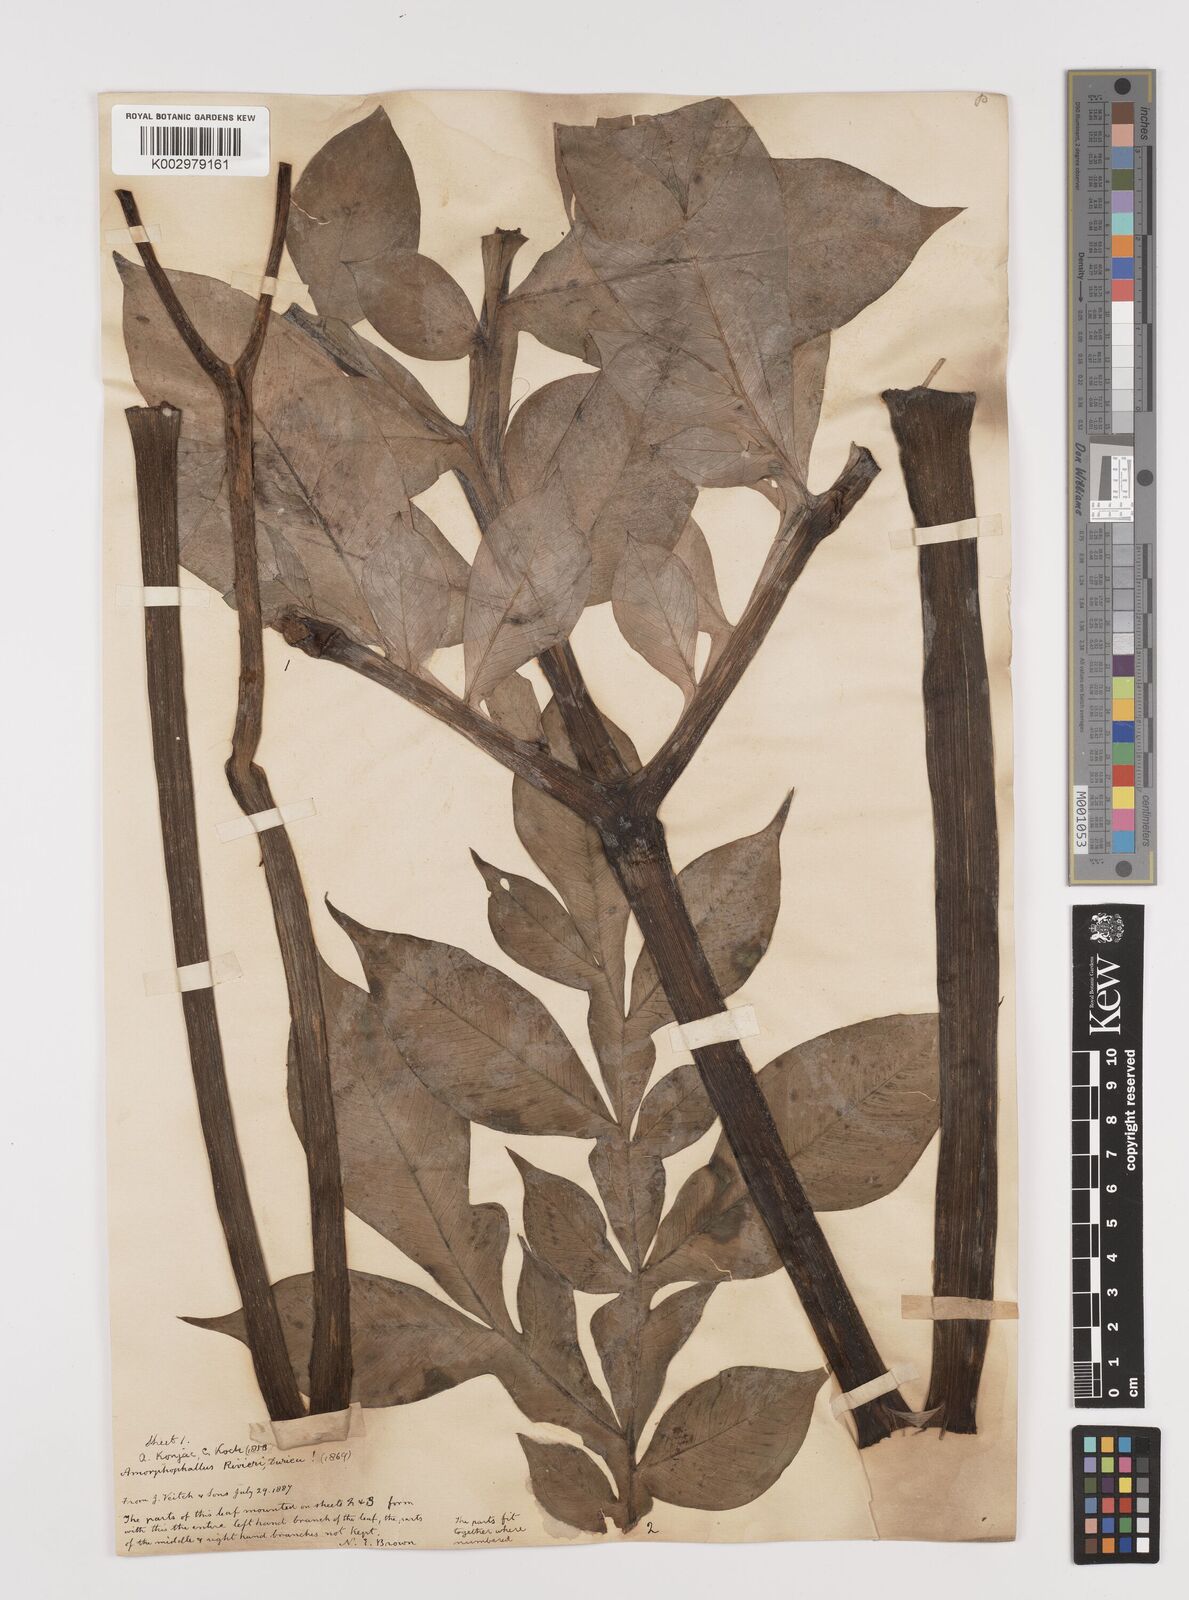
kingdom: Plantae
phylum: Tracheophyta
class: Liliopsida
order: Alismatales
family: Araceae
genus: Amorphophallus
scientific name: Amorphophallus konjac
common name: Umbrella arum
